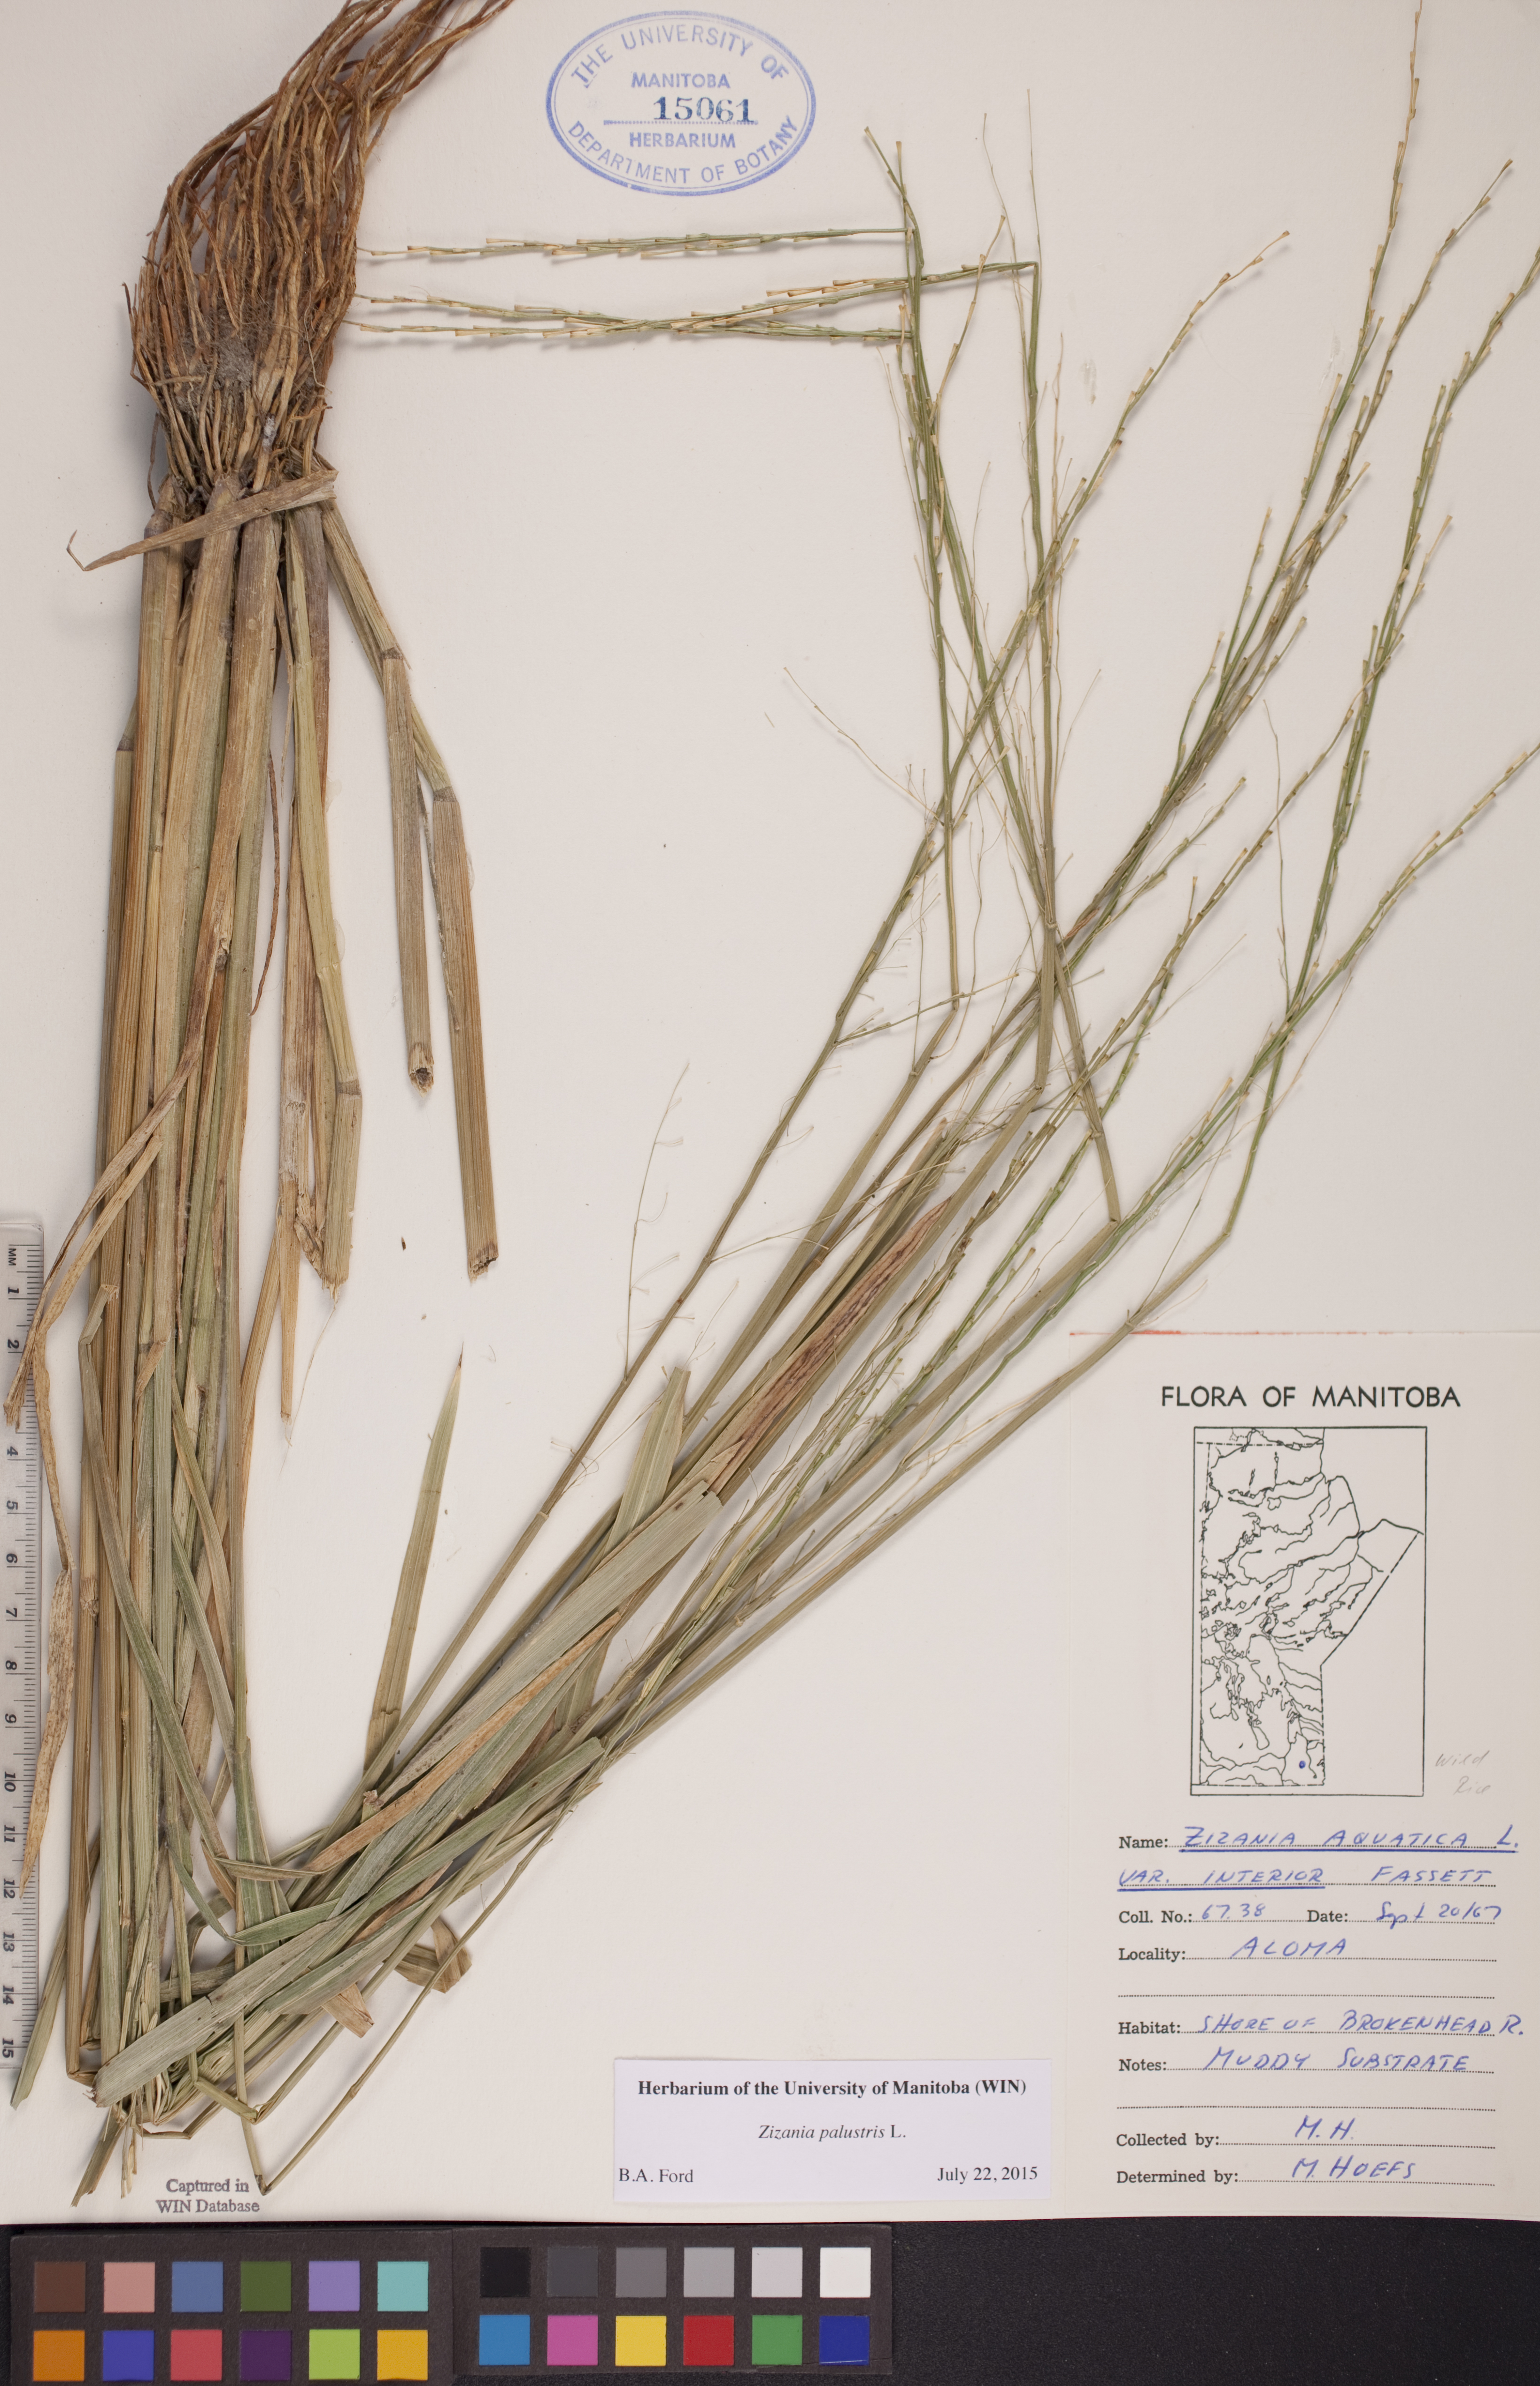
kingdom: Plantae
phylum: Tracheophyta
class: Liliopsida
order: Poales
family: Poaceae
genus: Zizania
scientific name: Zizania palustris
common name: Northern wild rice
